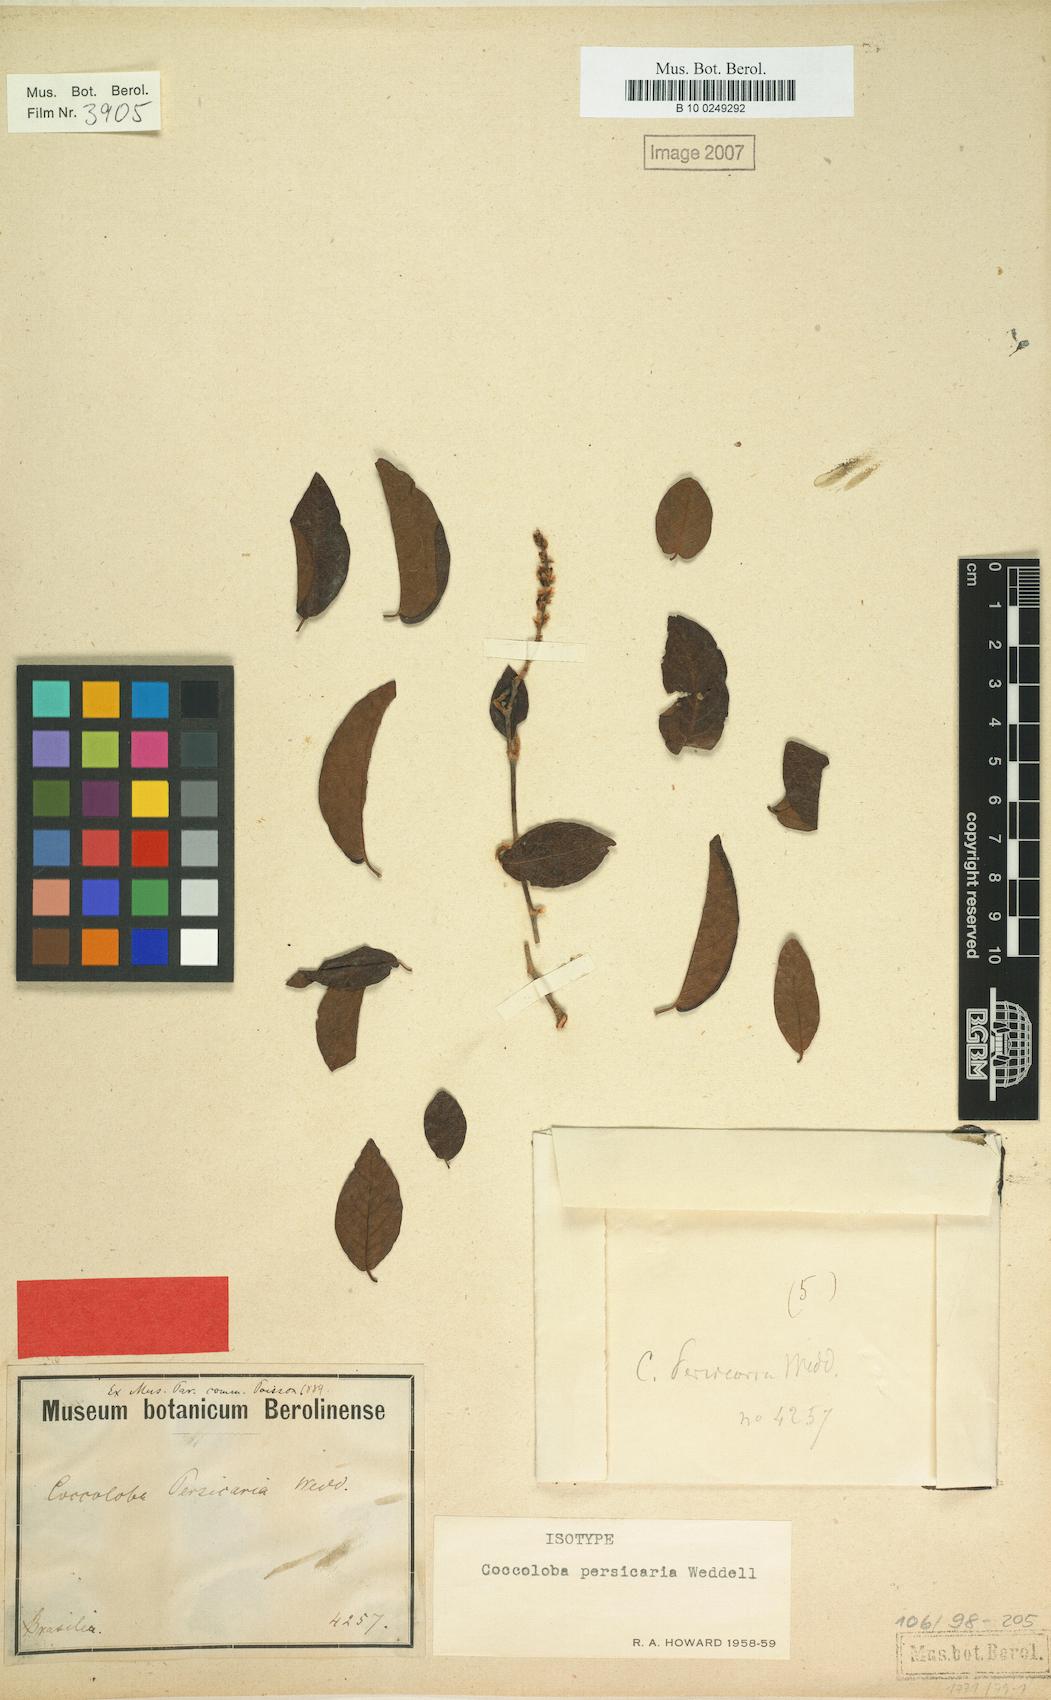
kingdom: Plantae
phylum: Tracheophyta
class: Magnoliopsida
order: Caryophyllales
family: Polygonaceae
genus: Coccoloba
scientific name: Coccoloba persicaria
